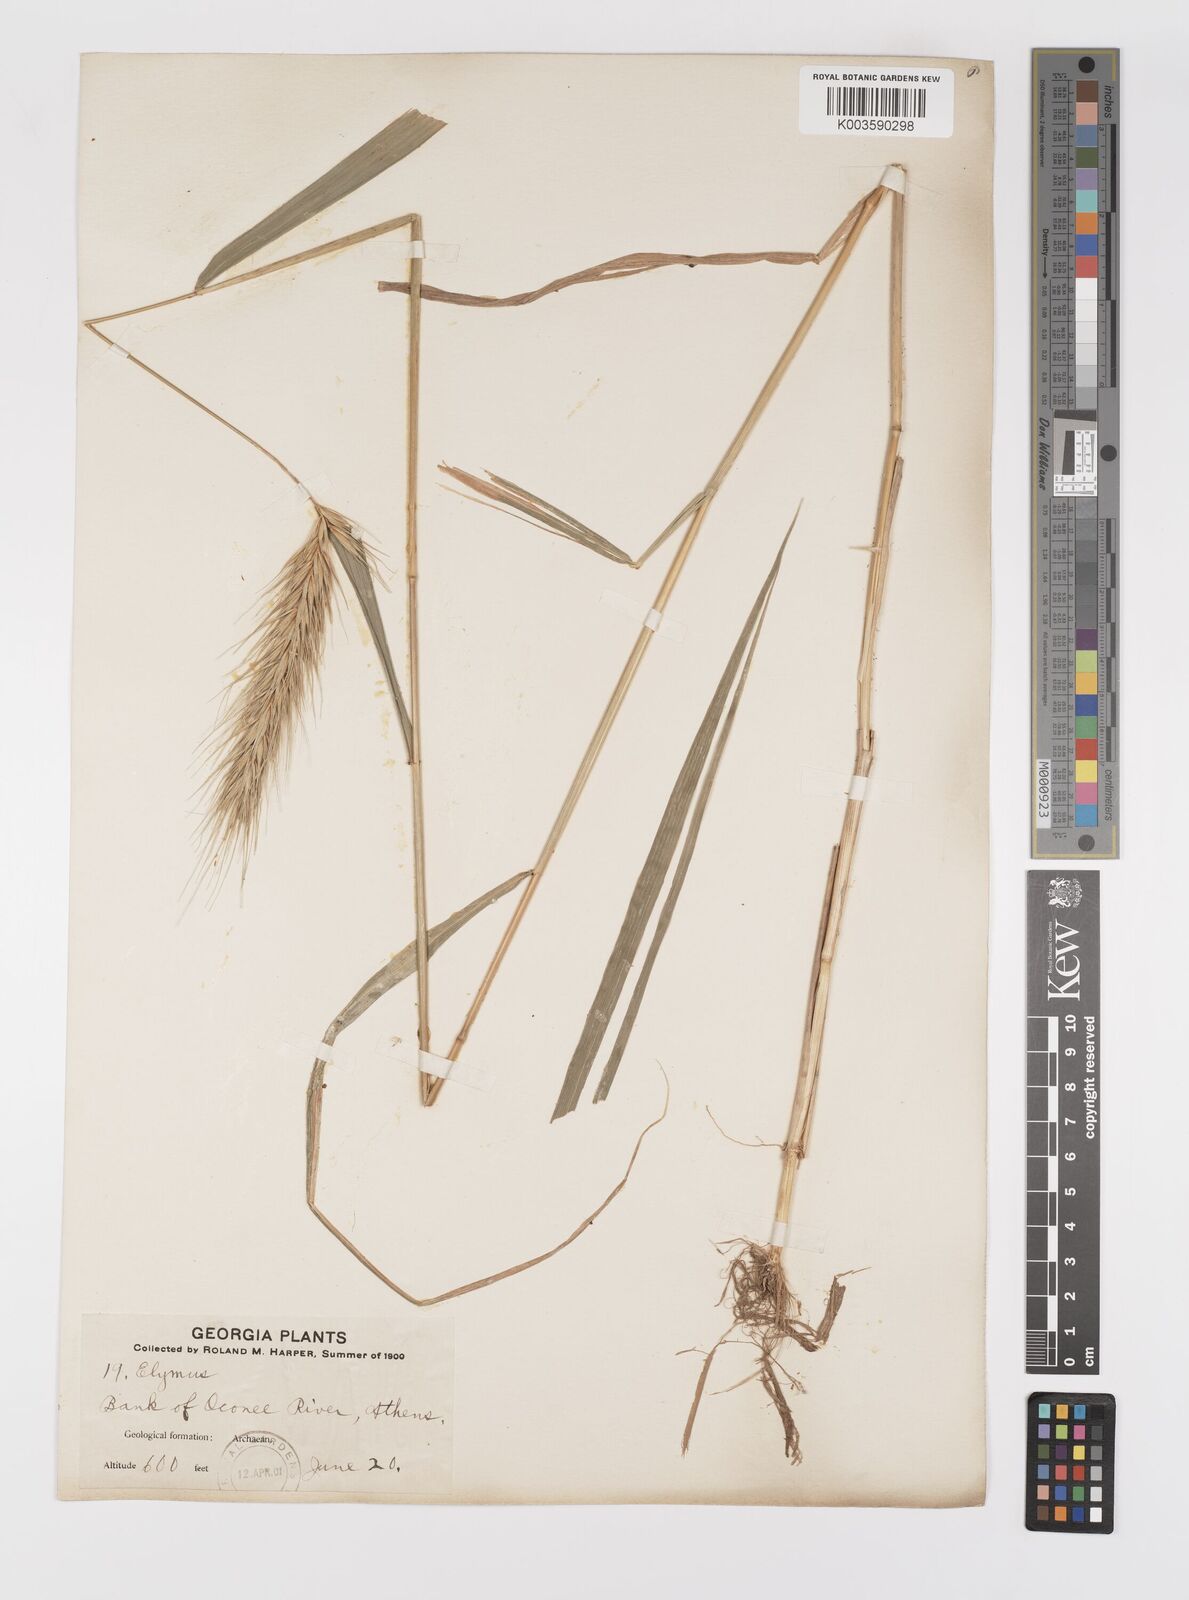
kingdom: Plantae
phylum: Tracheophyta
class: Liliopsida
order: Poales
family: Poaceae
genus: Elymus
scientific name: Elymus
